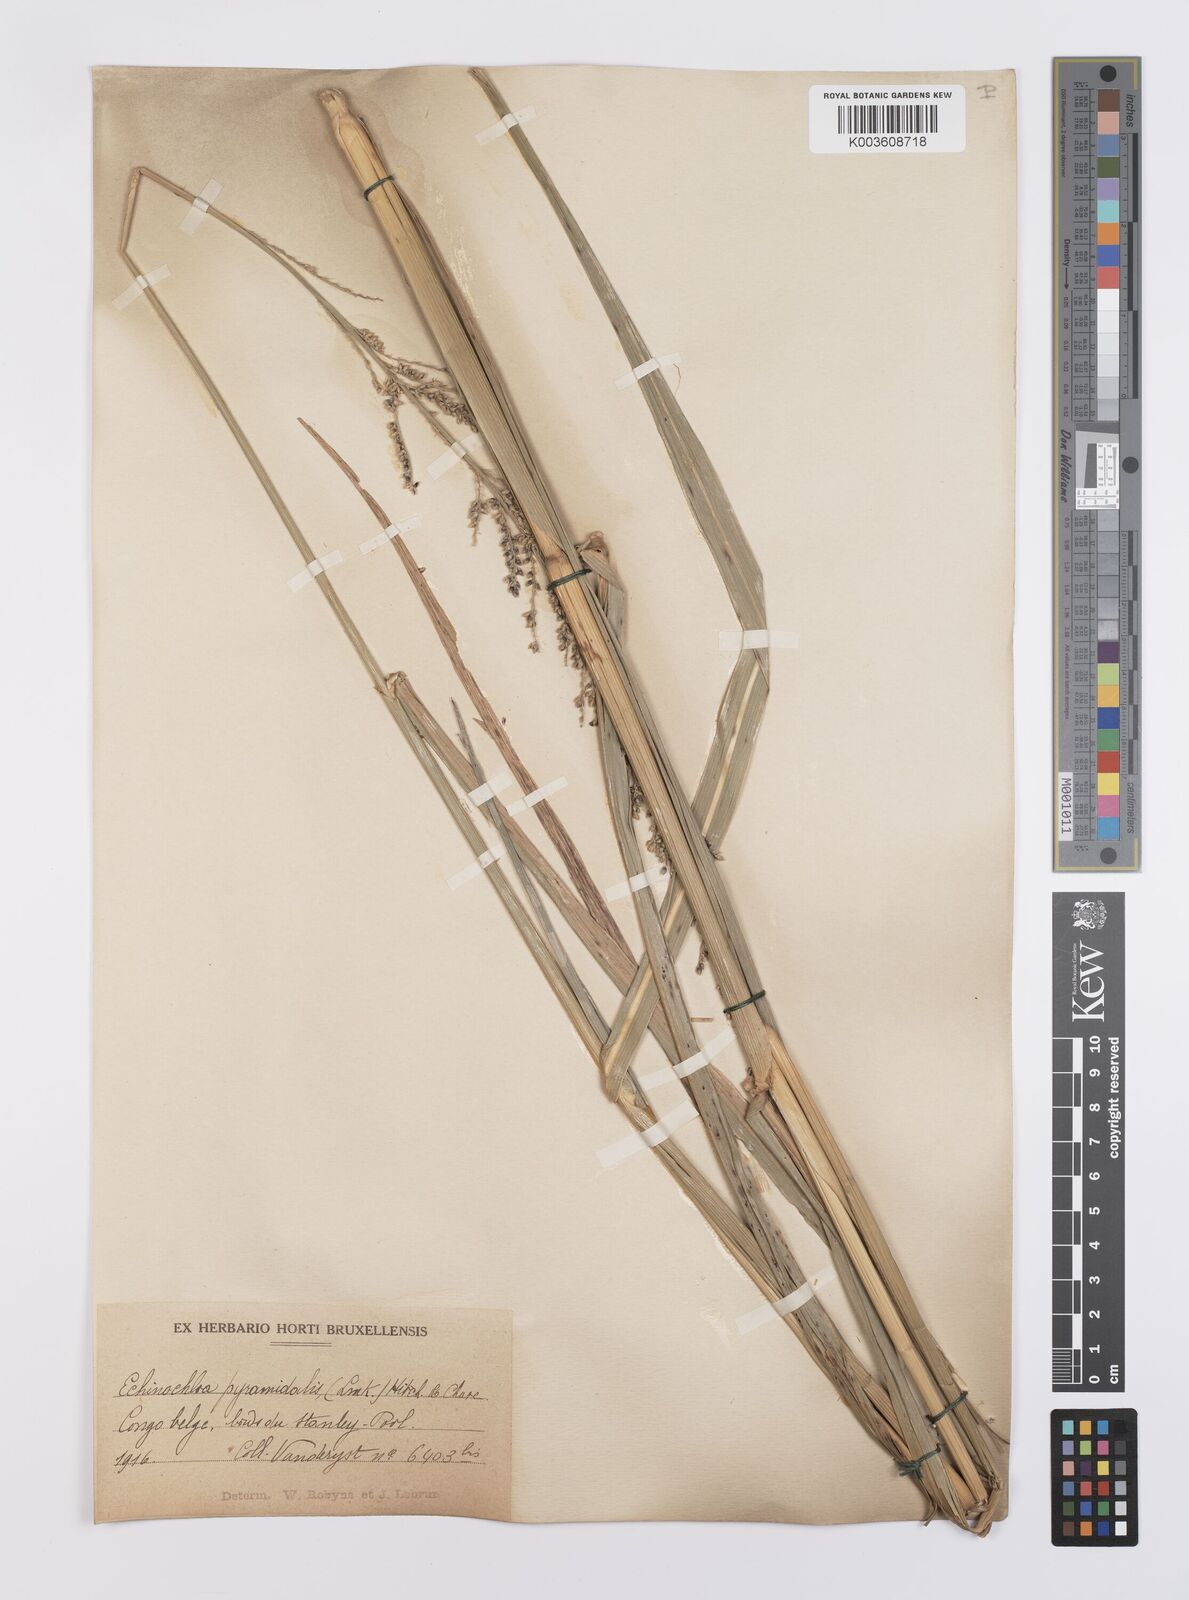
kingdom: Plantae
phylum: Tracheophyta
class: Liliopsida
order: Poales
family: Poaceae
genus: Echinochloa
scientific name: Echinochloa pyramidalis
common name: Antelope grass
